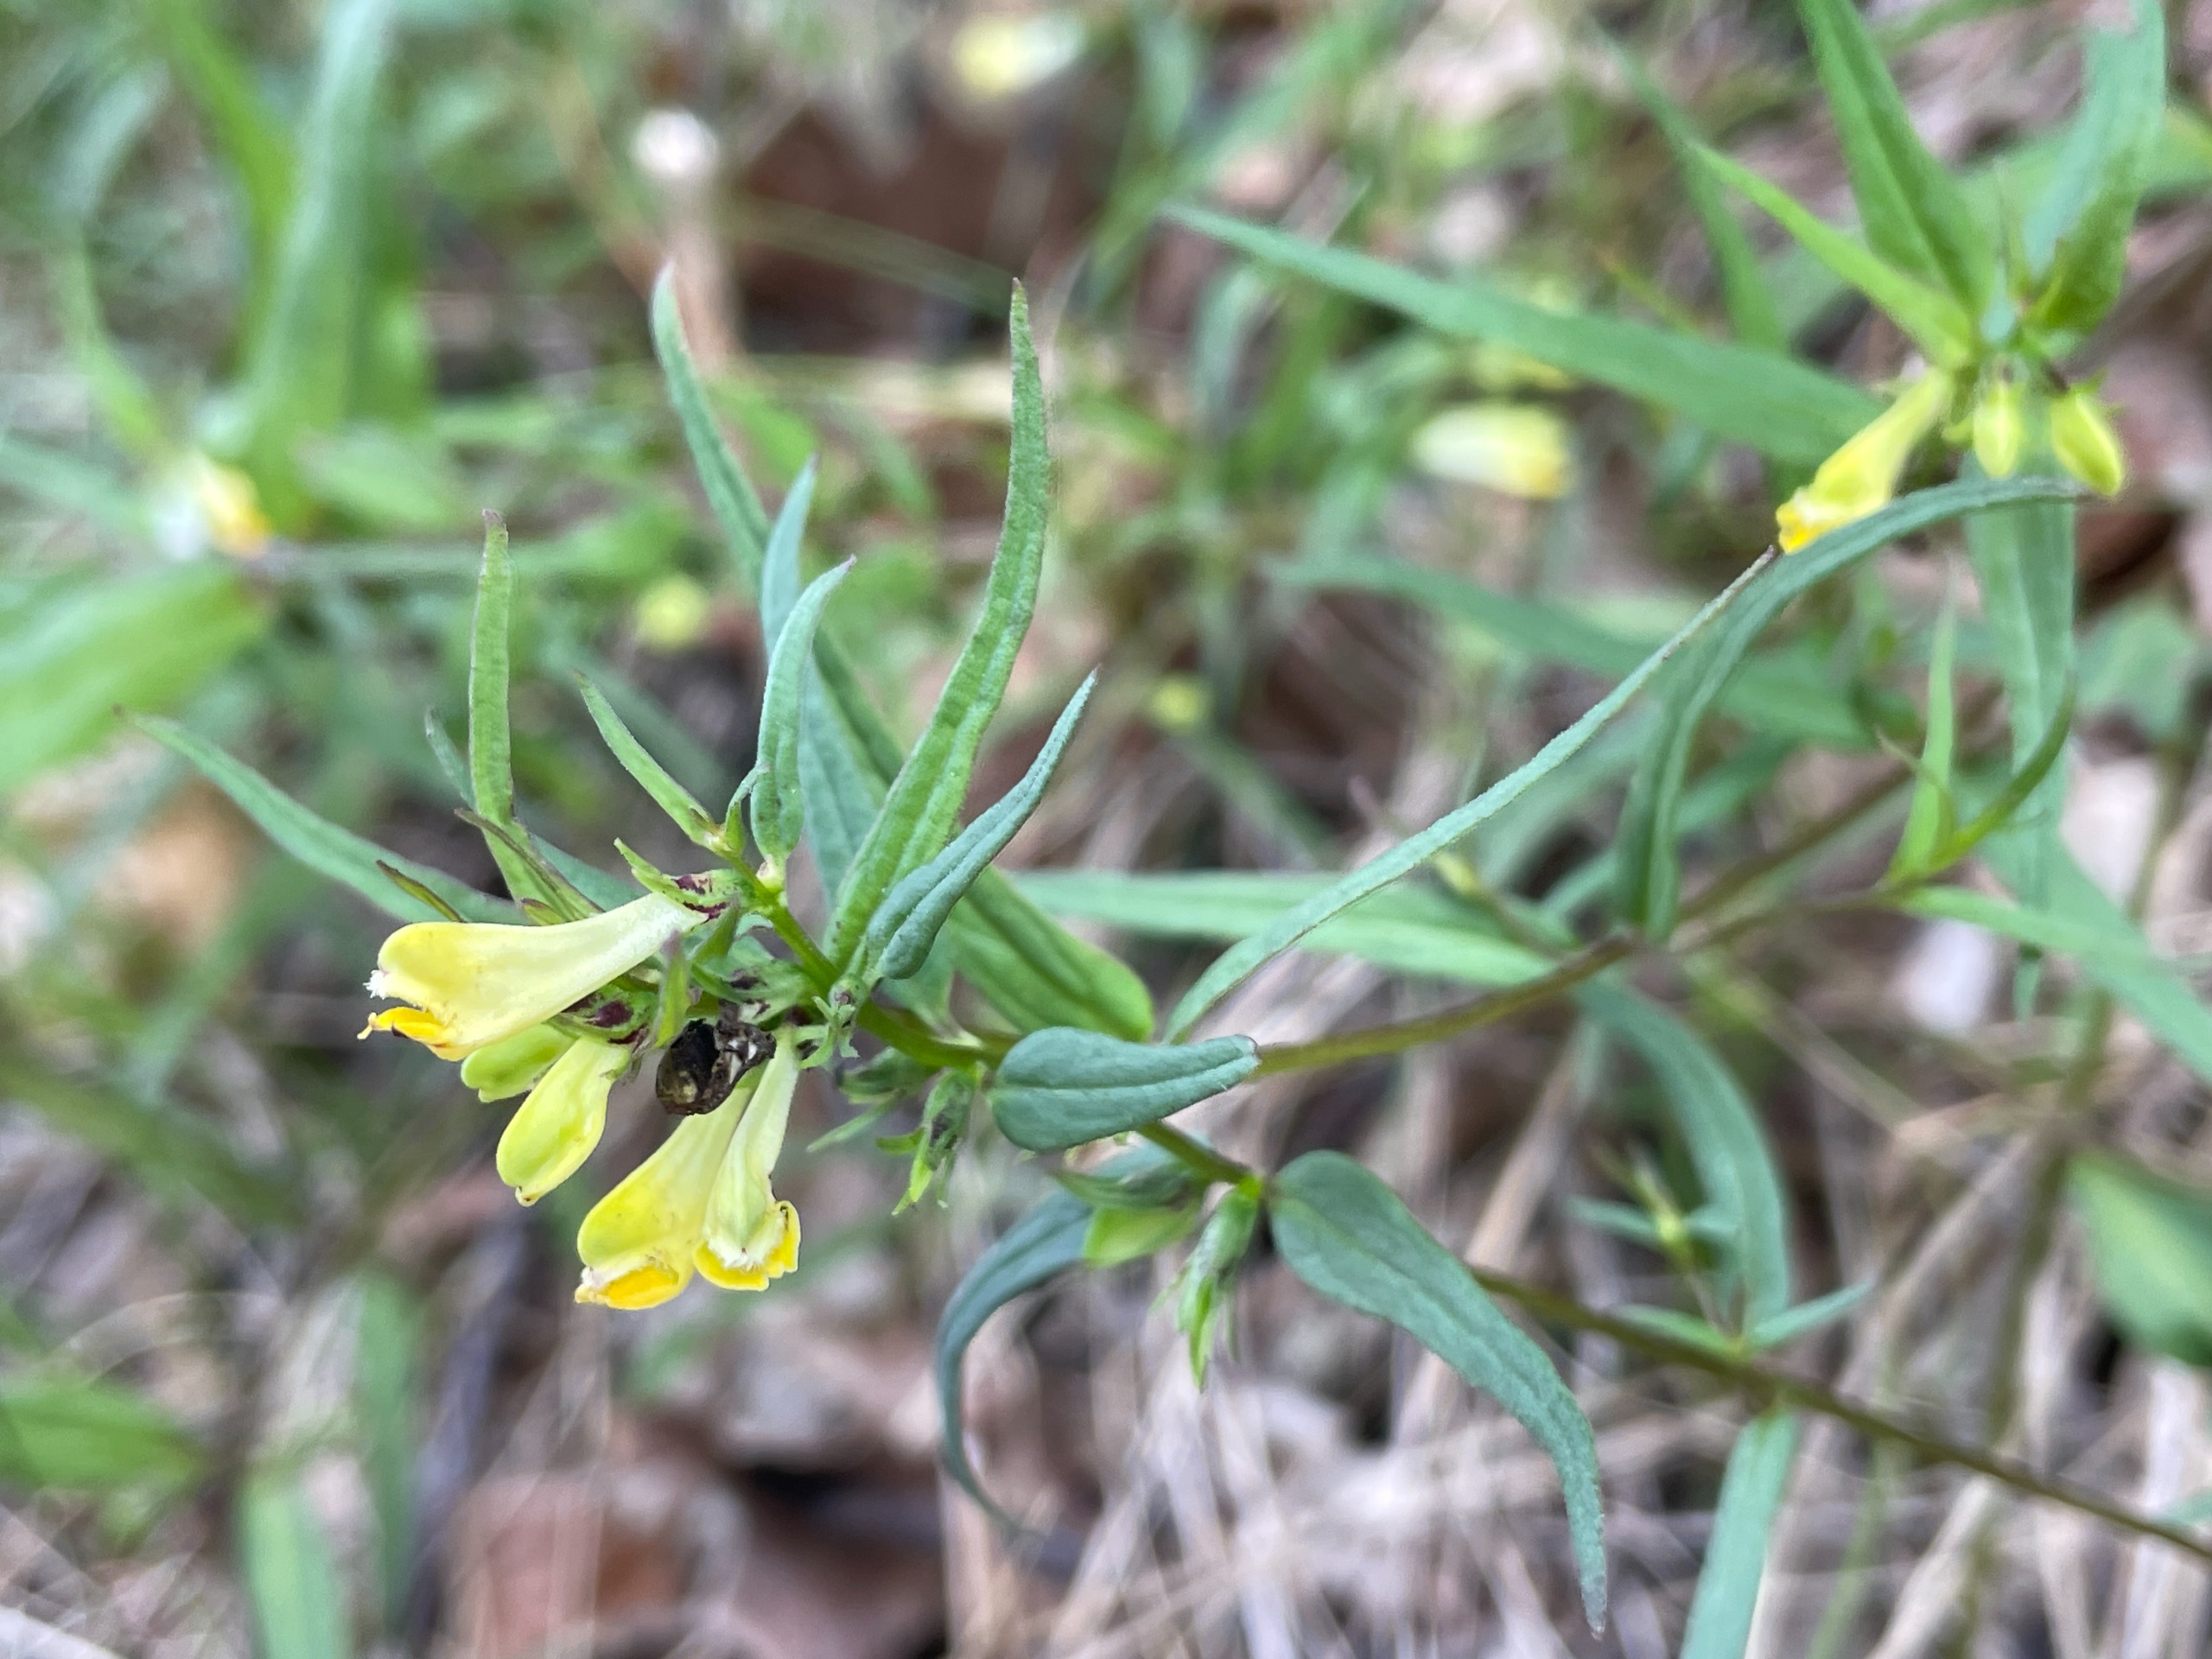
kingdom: Plantae
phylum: Tracheophyta
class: Magnoliopsida
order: Lamiales
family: Orobanchaceae
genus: Melampyrum
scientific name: Melampyrum pratense
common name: Almindelig kohvede
